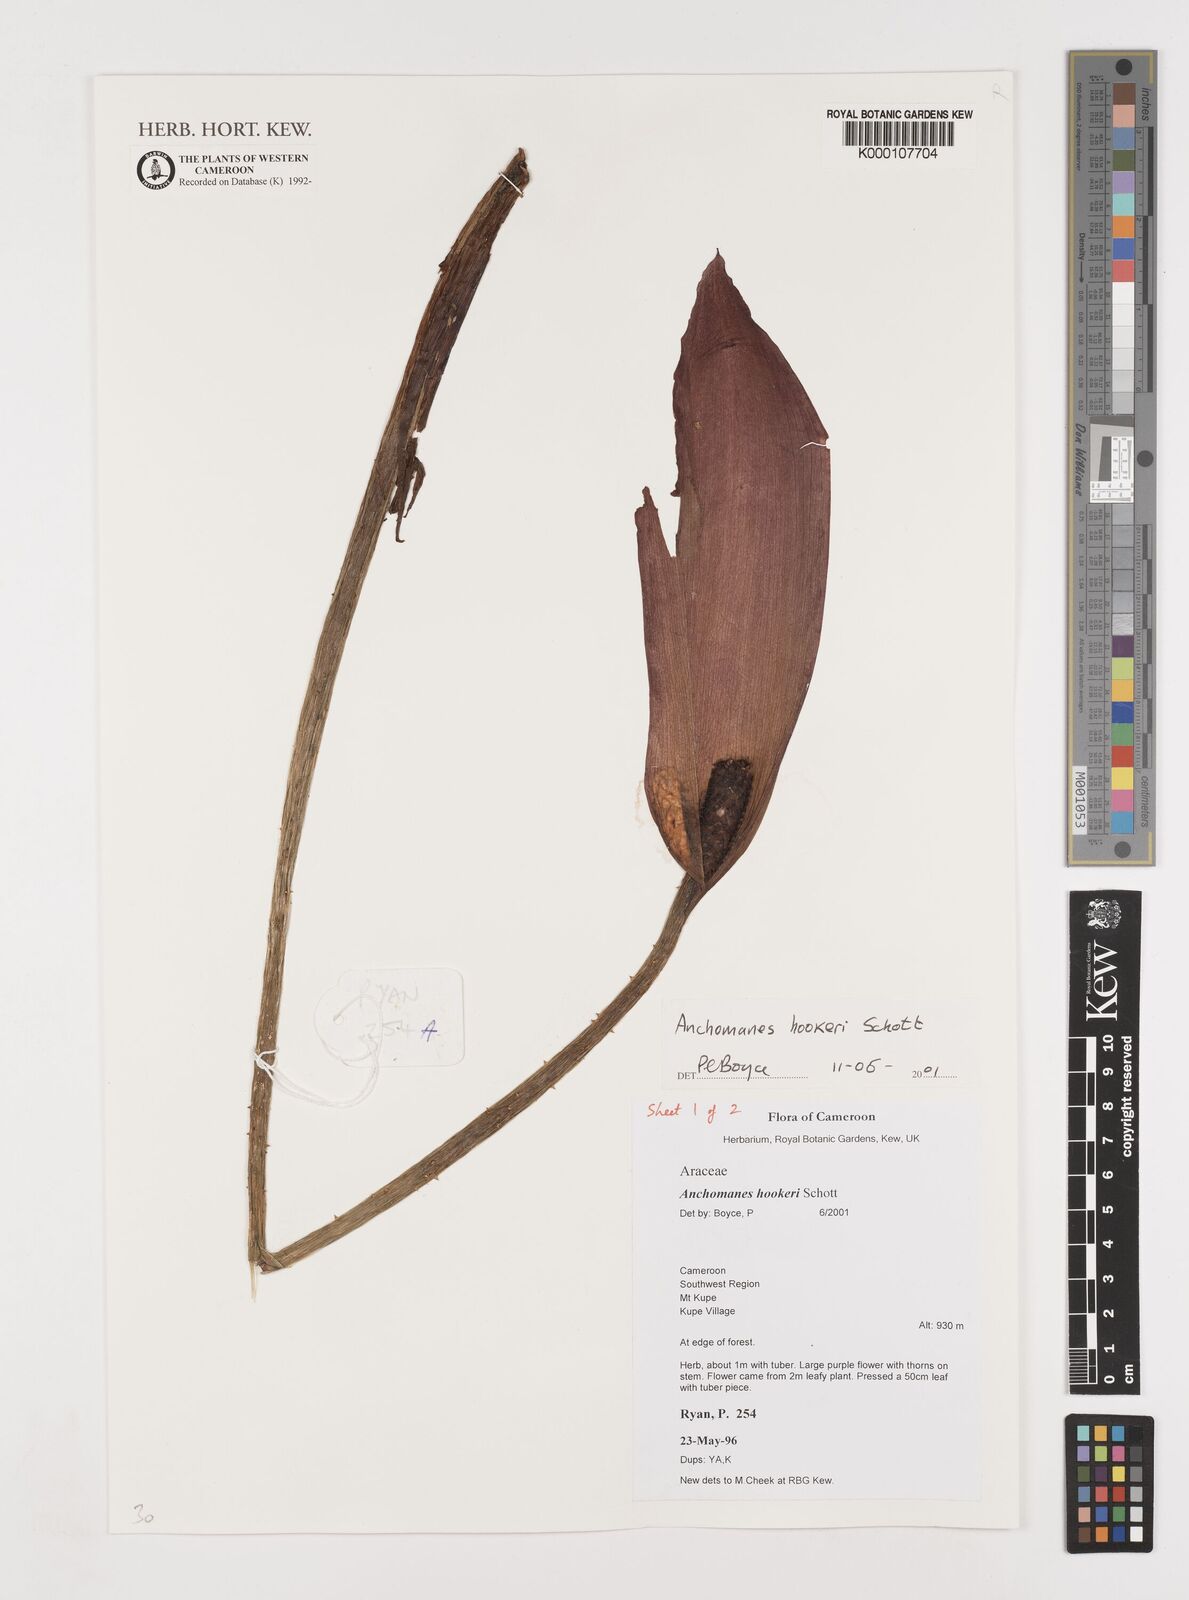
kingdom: Plantae
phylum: Tracheophyta
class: Liliopsida
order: Alismatales
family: Araceae
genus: Anchomanes
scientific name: Anchomanes difformis
